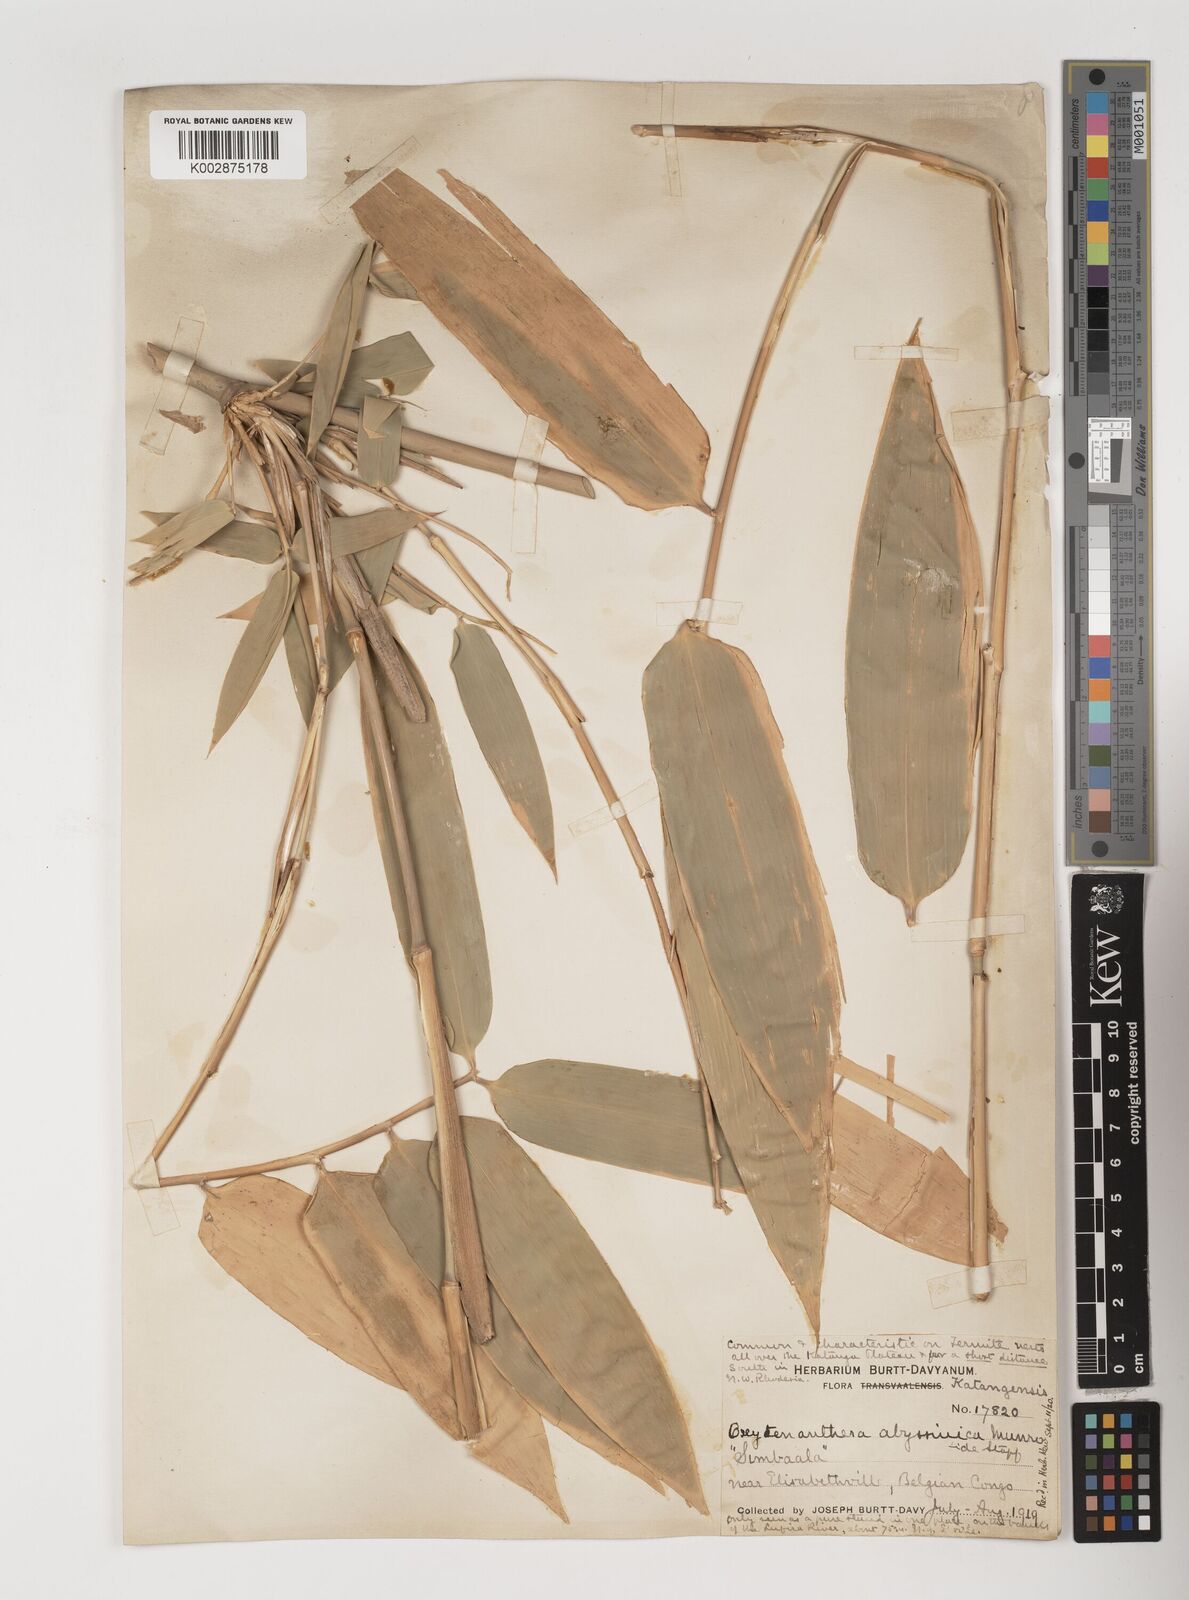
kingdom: Plantae
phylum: Tracheophyta
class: Liliopsida
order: Poales
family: Poaceae
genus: Oxytenanthera
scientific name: Oxytenanthera abyssinica
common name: Wine bamboo
